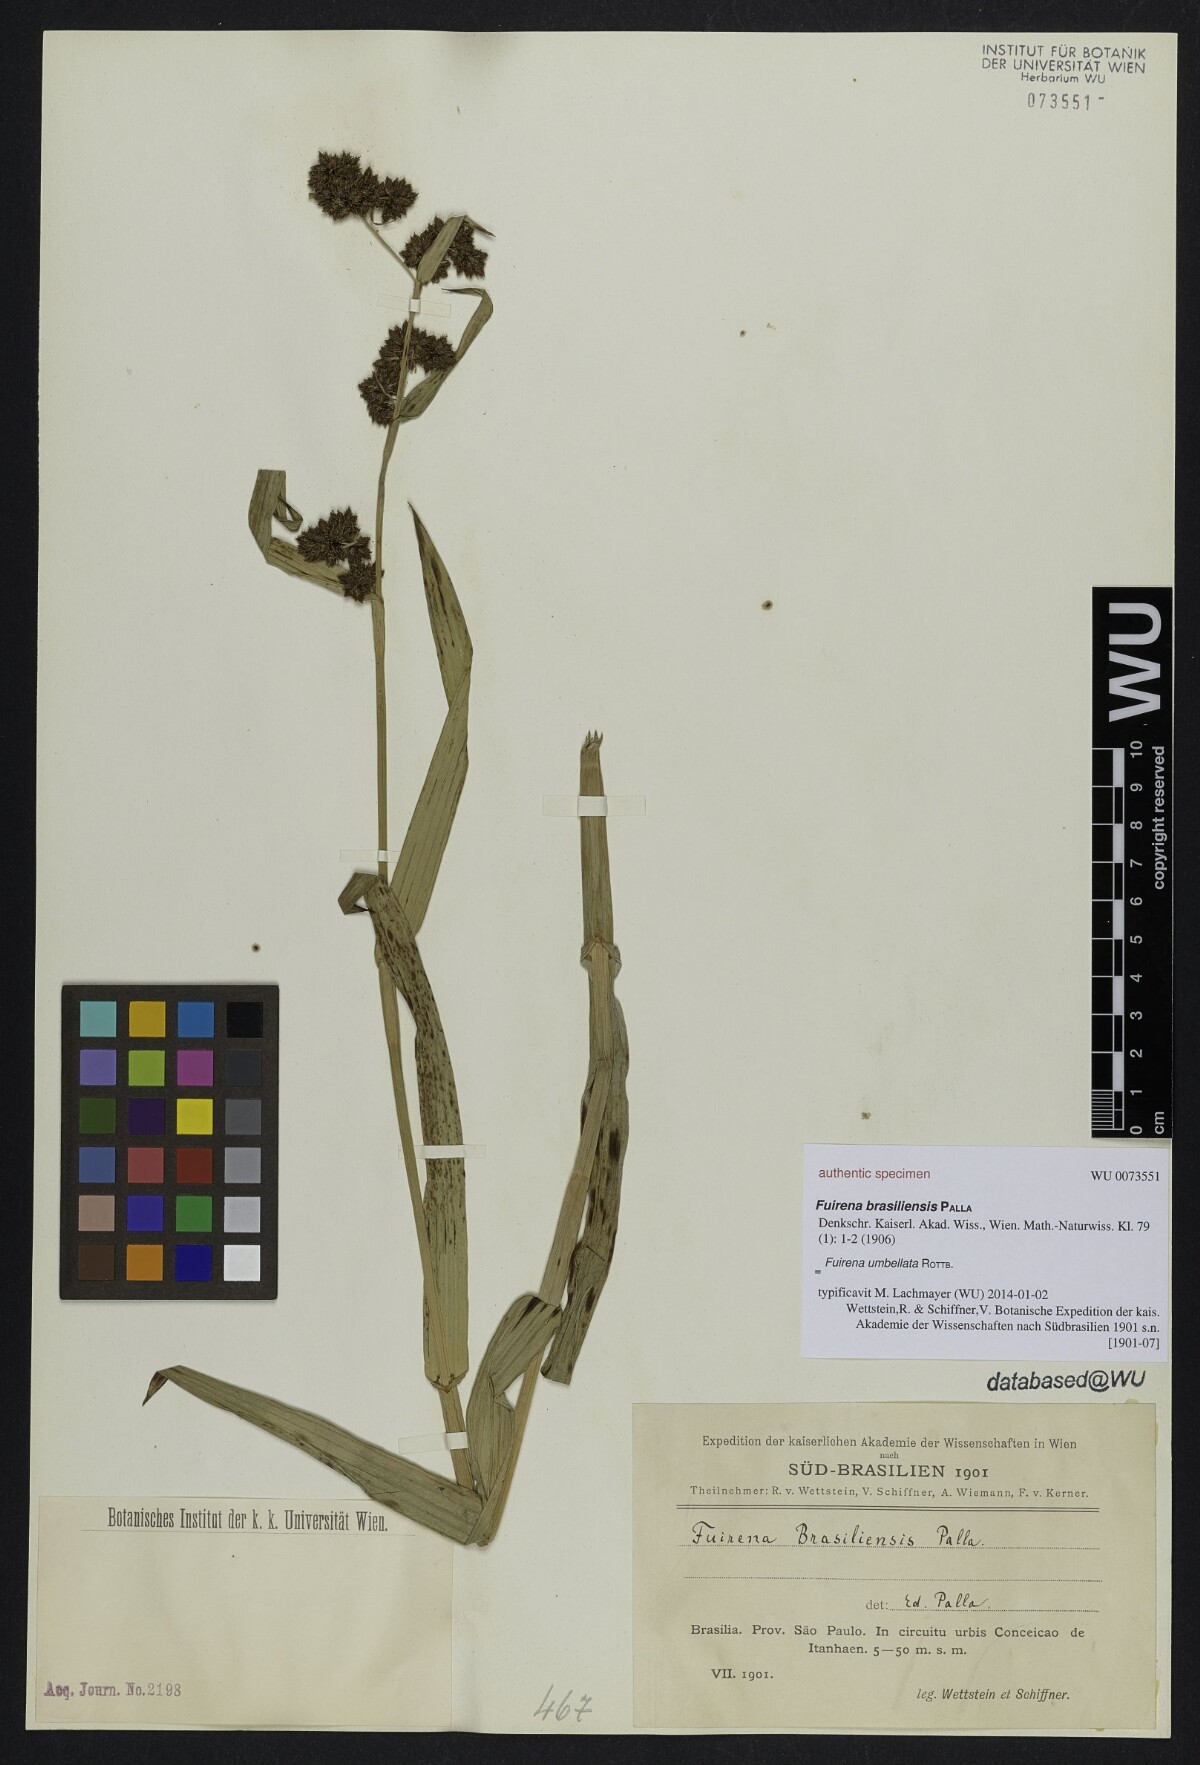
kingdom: Plantae
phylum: Tracheophyta
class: Liliopsida
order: Poales
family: Cyperaceae
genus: Fuirena
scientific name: Fuirena umbellata
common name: Yefen
